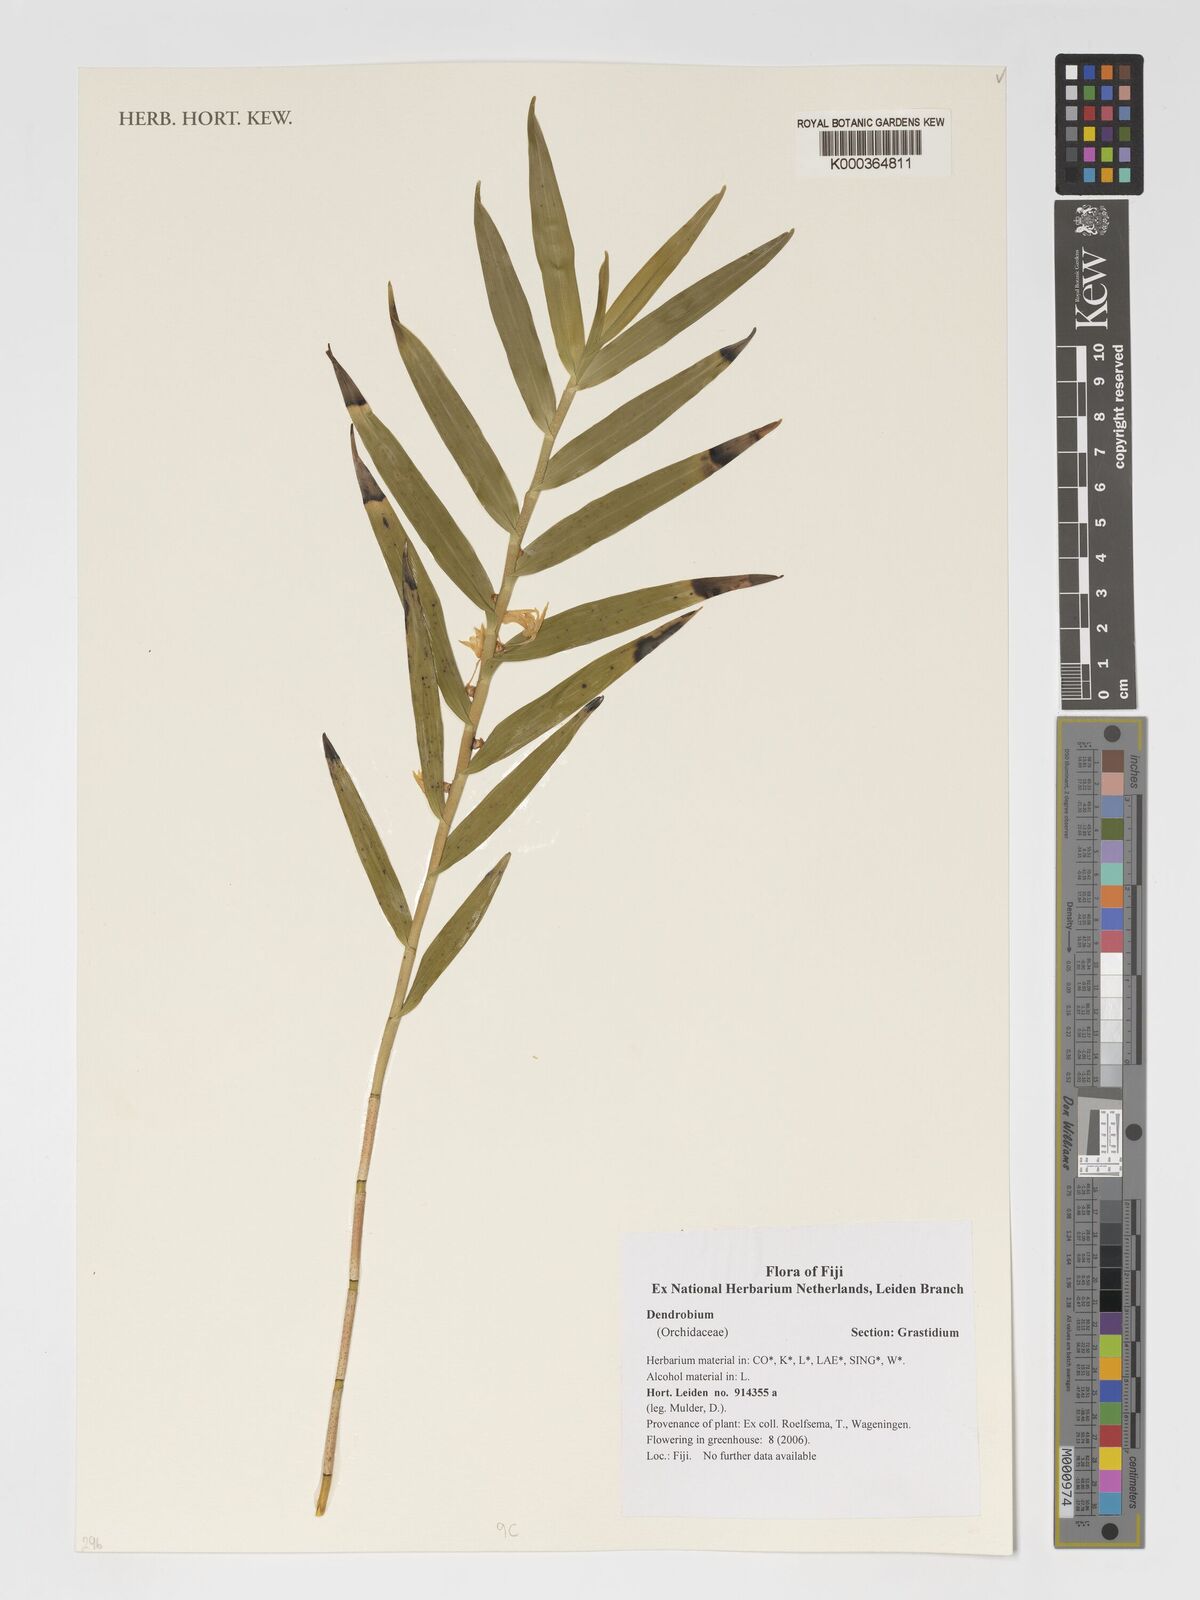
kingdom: Plantae
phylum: Tracheophyta
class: Liliopsida
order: Asparagales
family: Orchidaceae
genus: Dendrobium
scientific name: Dendrobium
